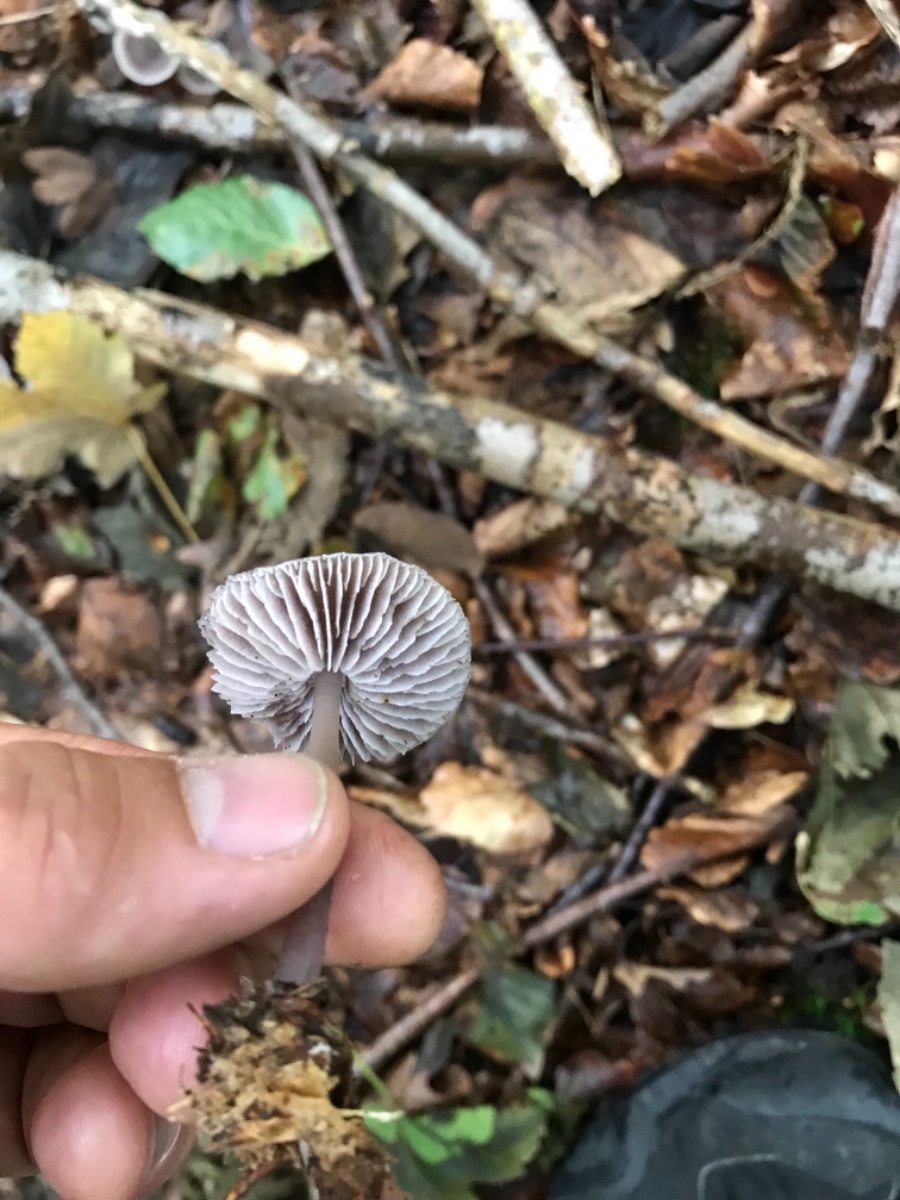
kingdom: Fungi
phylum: Basidiomycota
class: Agaricomycetes
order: Agaricales
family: Mycenaceae
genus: Prunulus
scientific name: Prunulus diosmus
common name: tobaks-huesvamp
